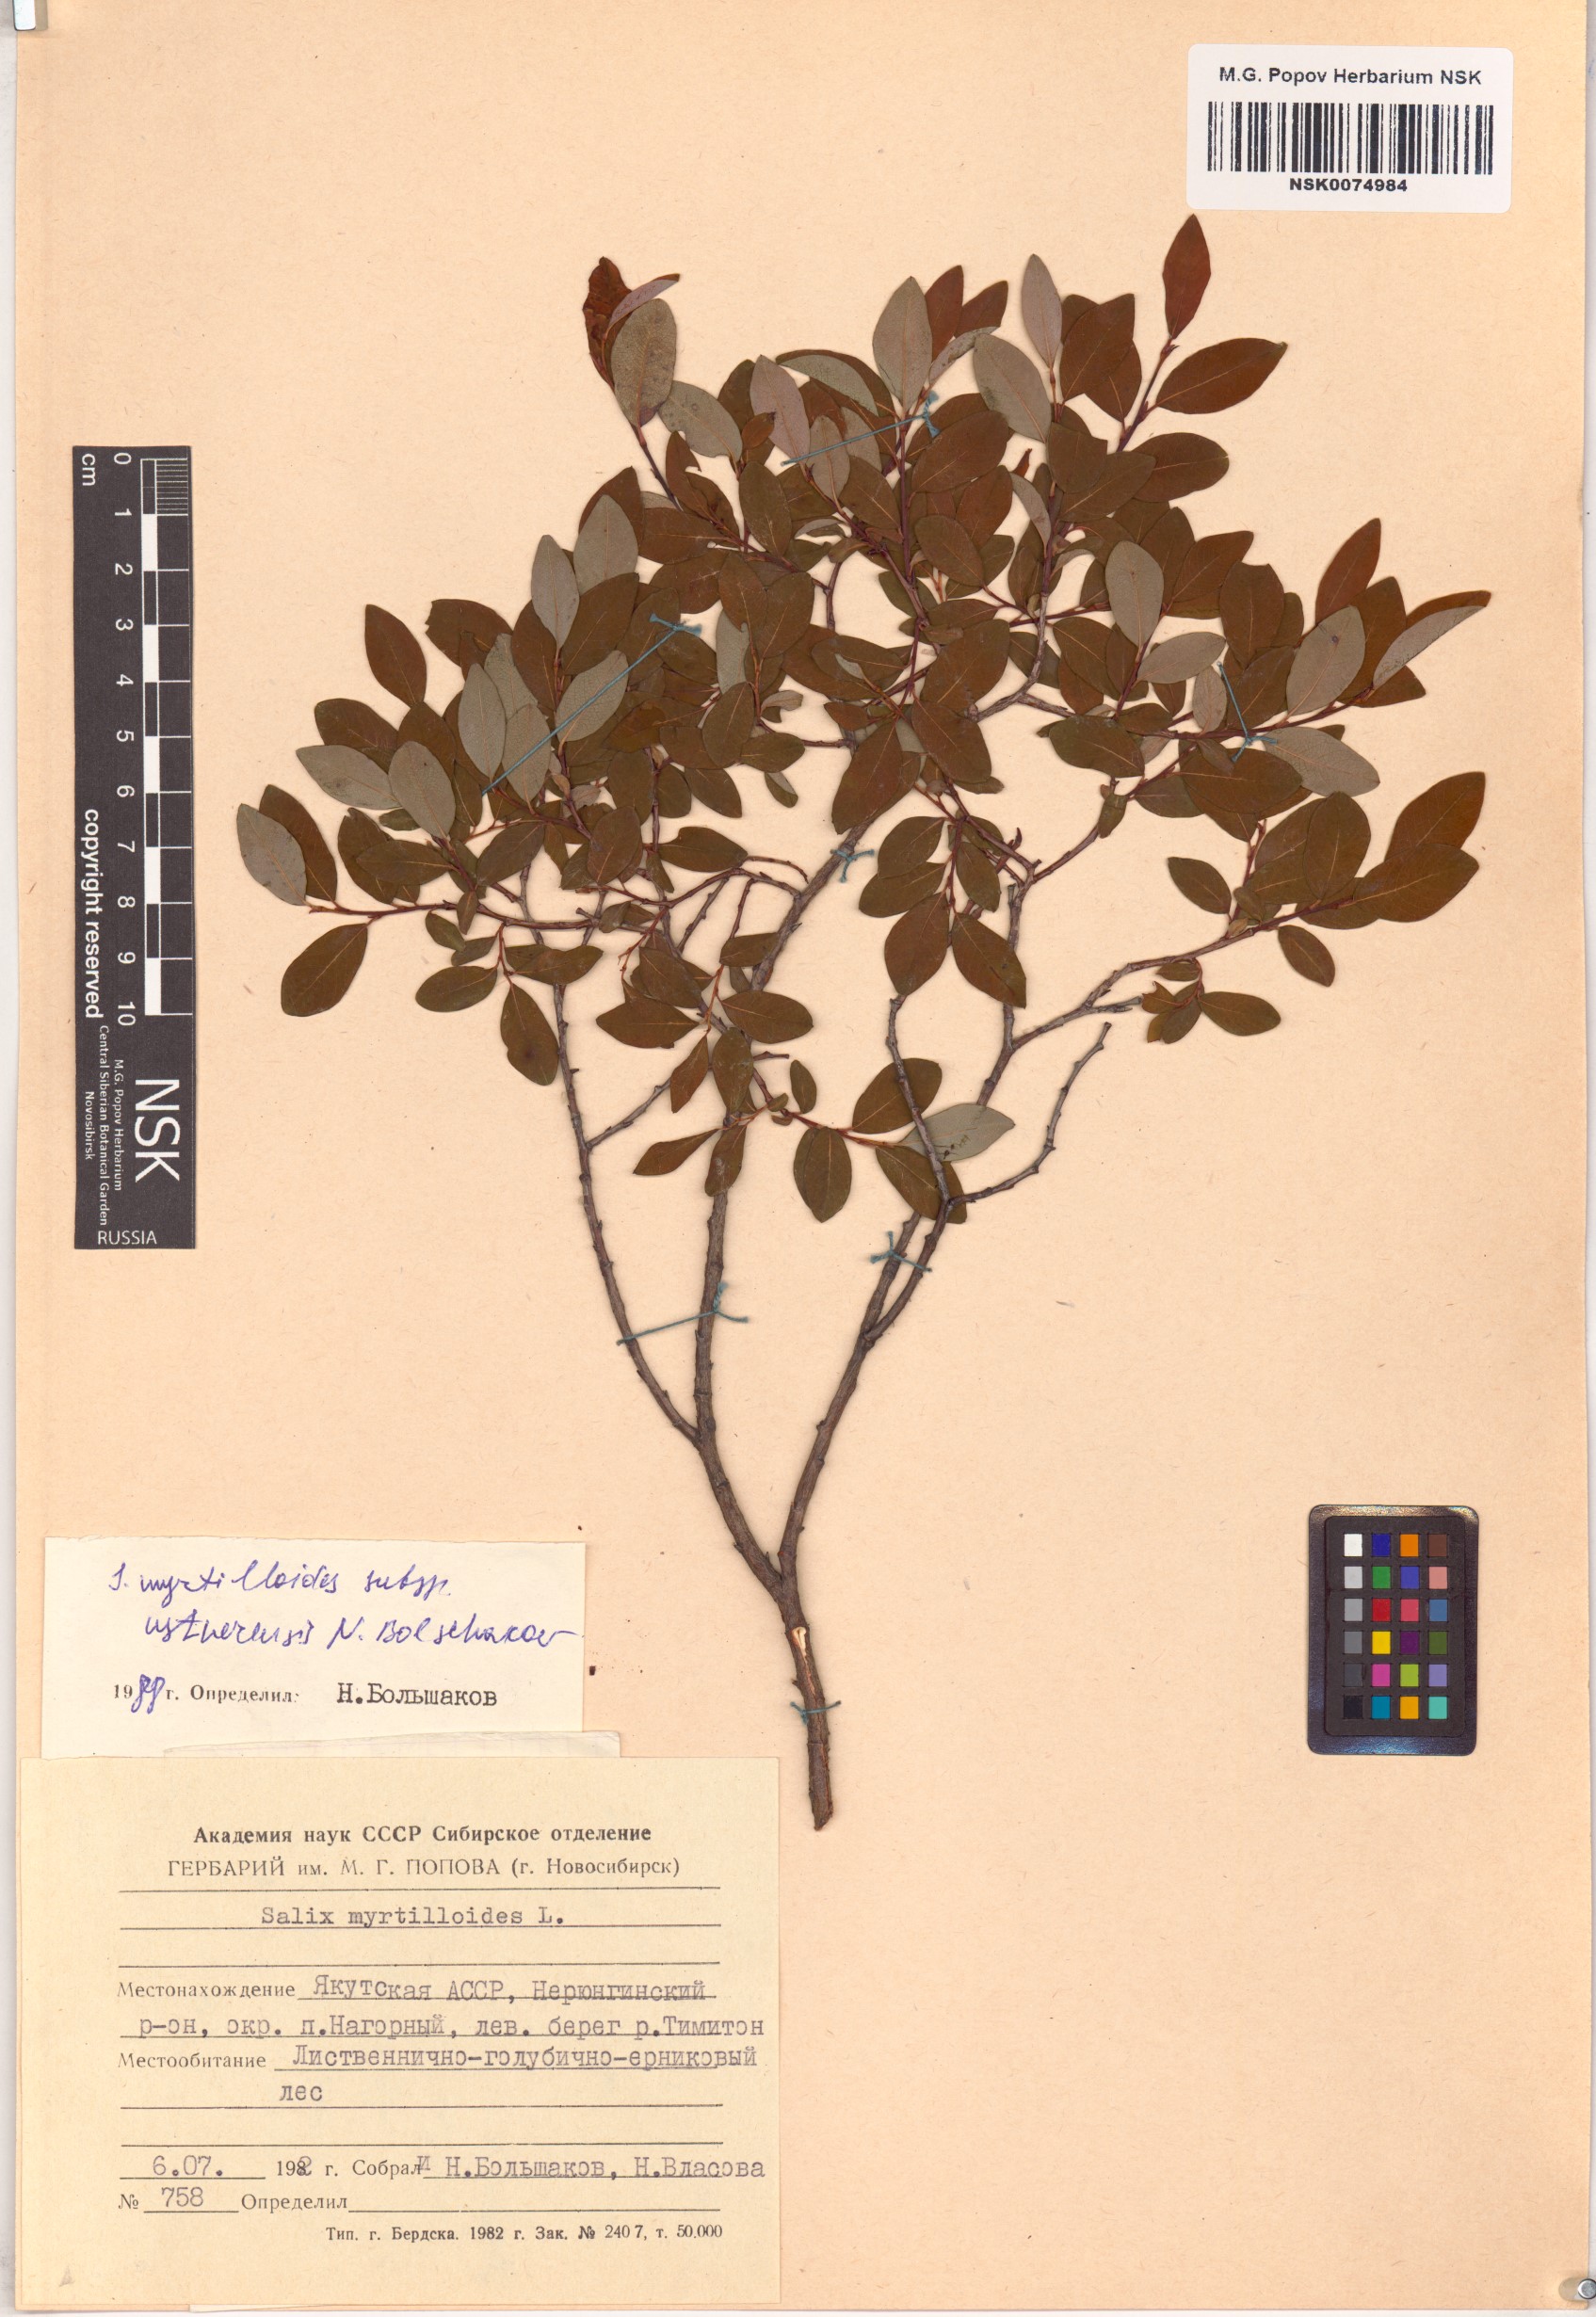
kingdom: Plantae
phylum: Tracheophyta
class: Magnoliopsida
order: Malpighiales
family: Salicaceae
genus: Salix
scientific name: Salix ustnerensis
